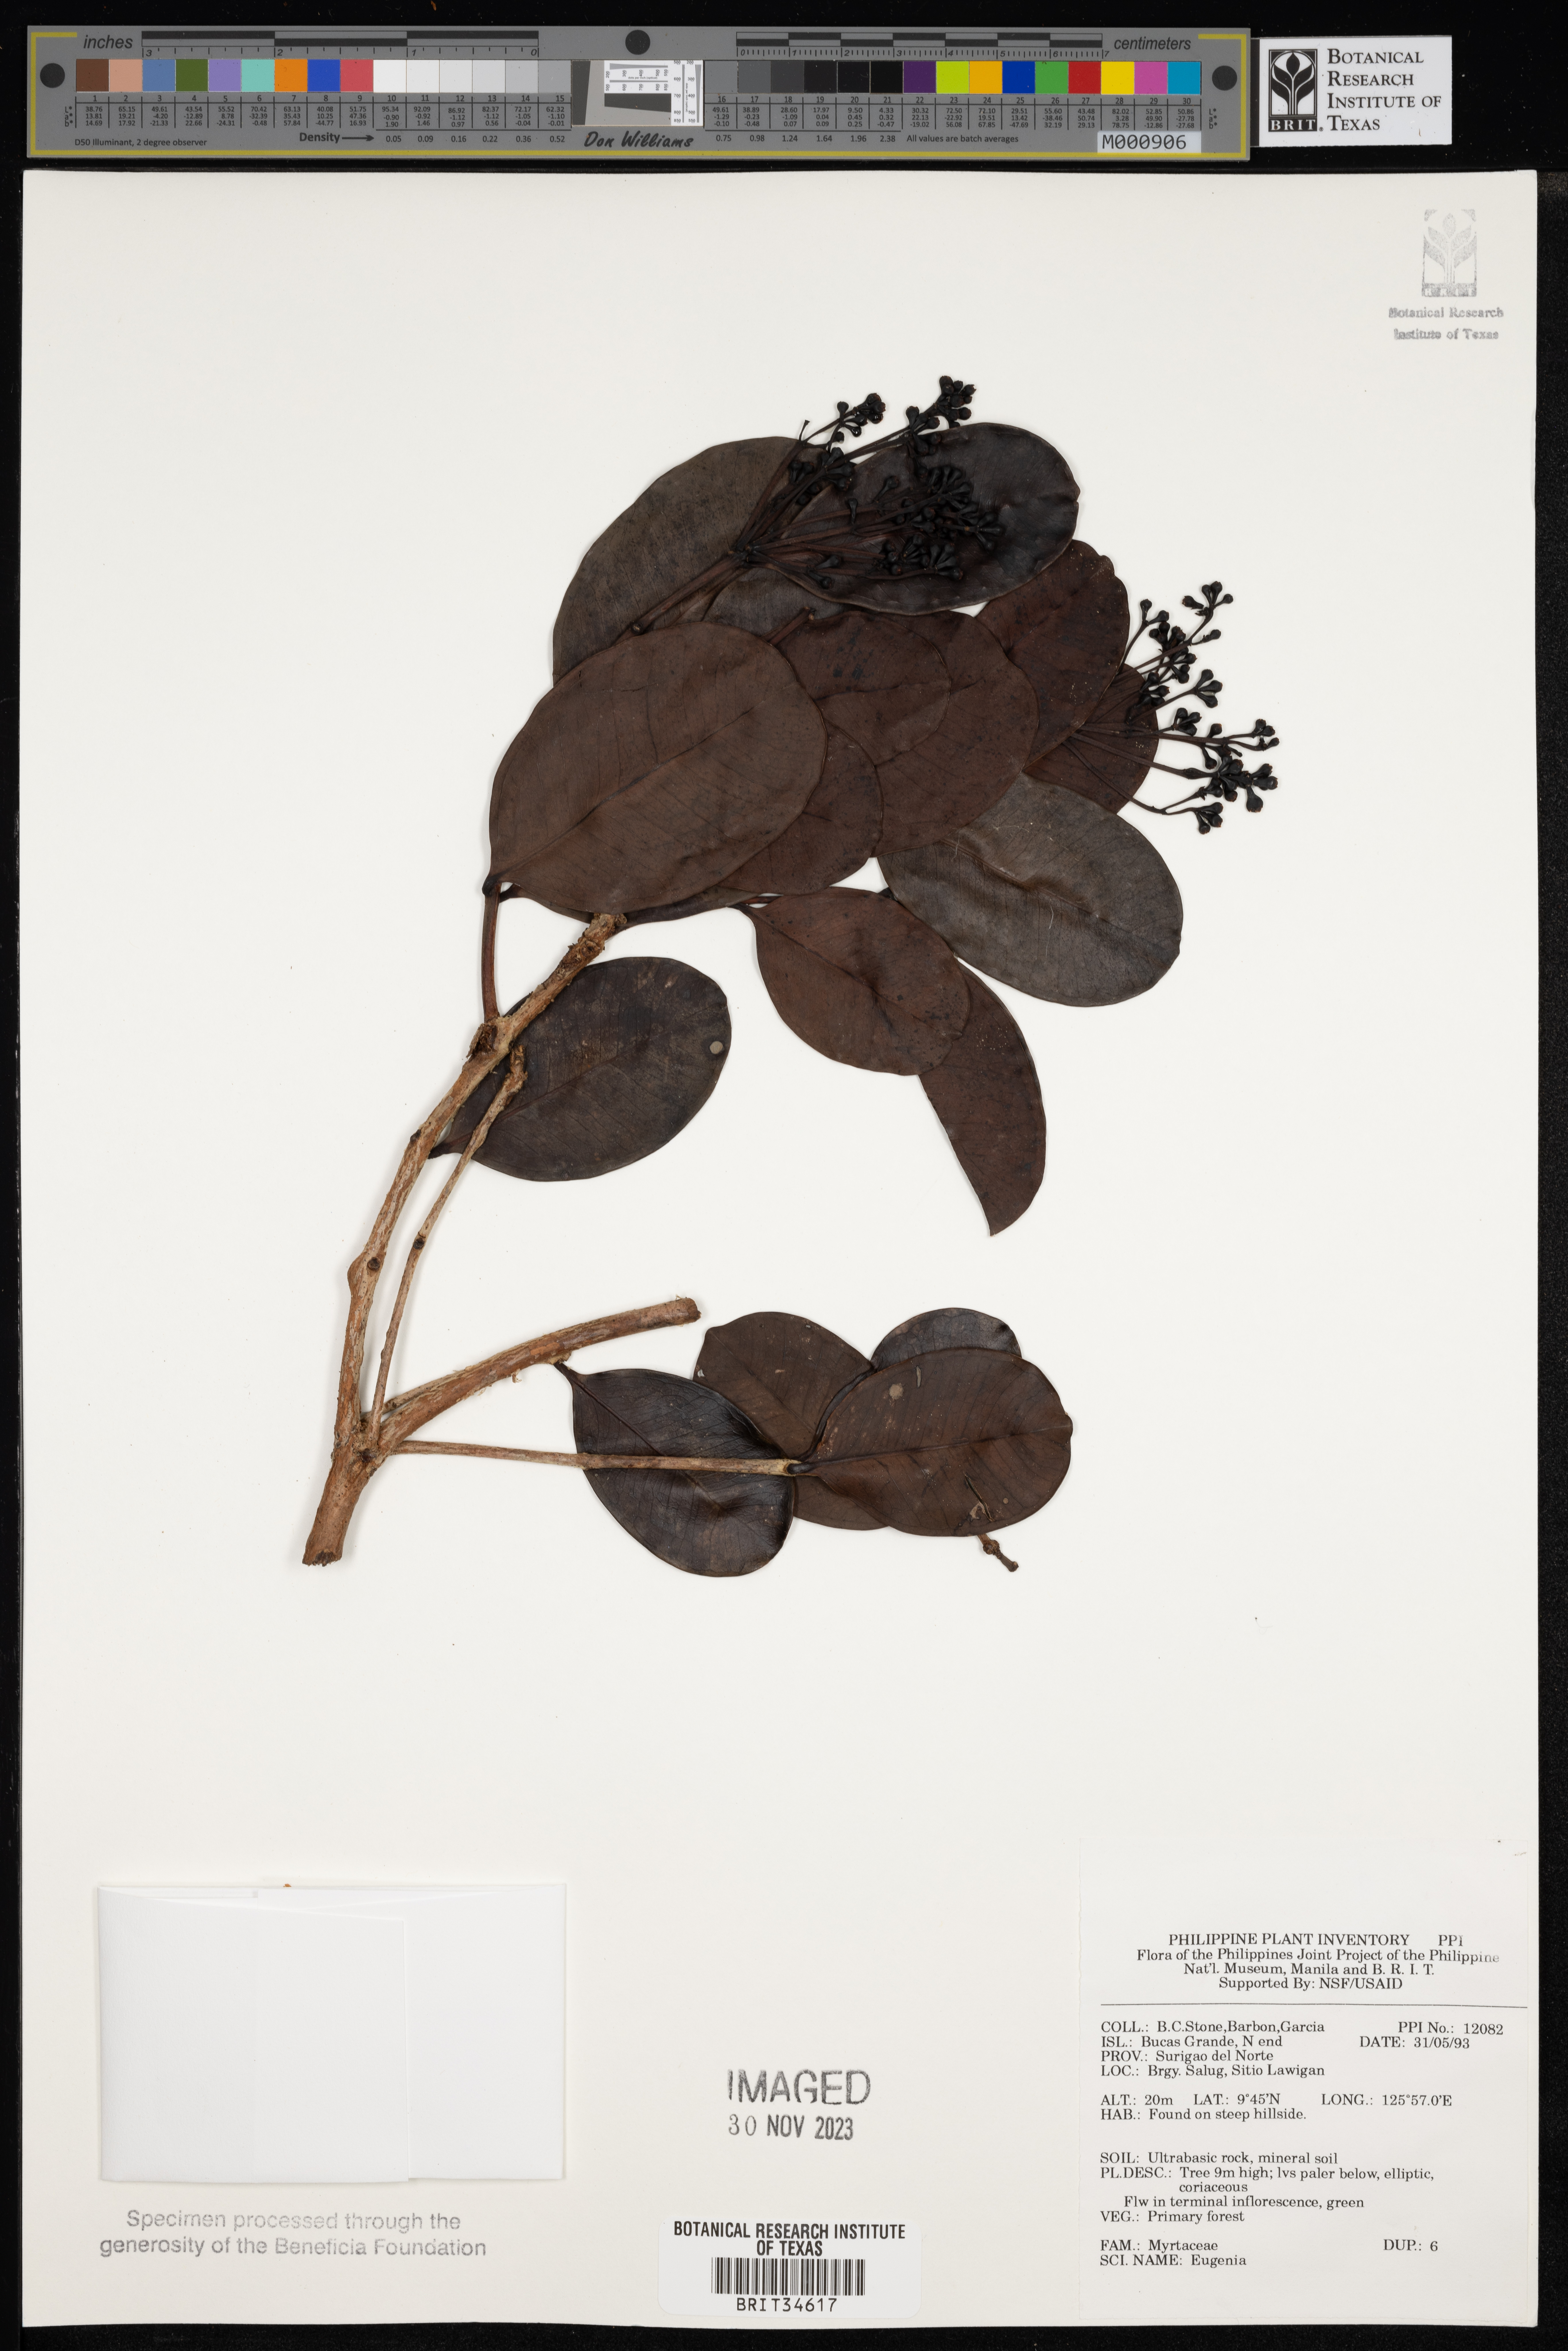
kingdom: Plantae
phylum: Tracheophyta
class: Magnoliopsida
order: Myrtales
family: Myrtaceae
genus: Eugenia
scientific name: Eugenia
